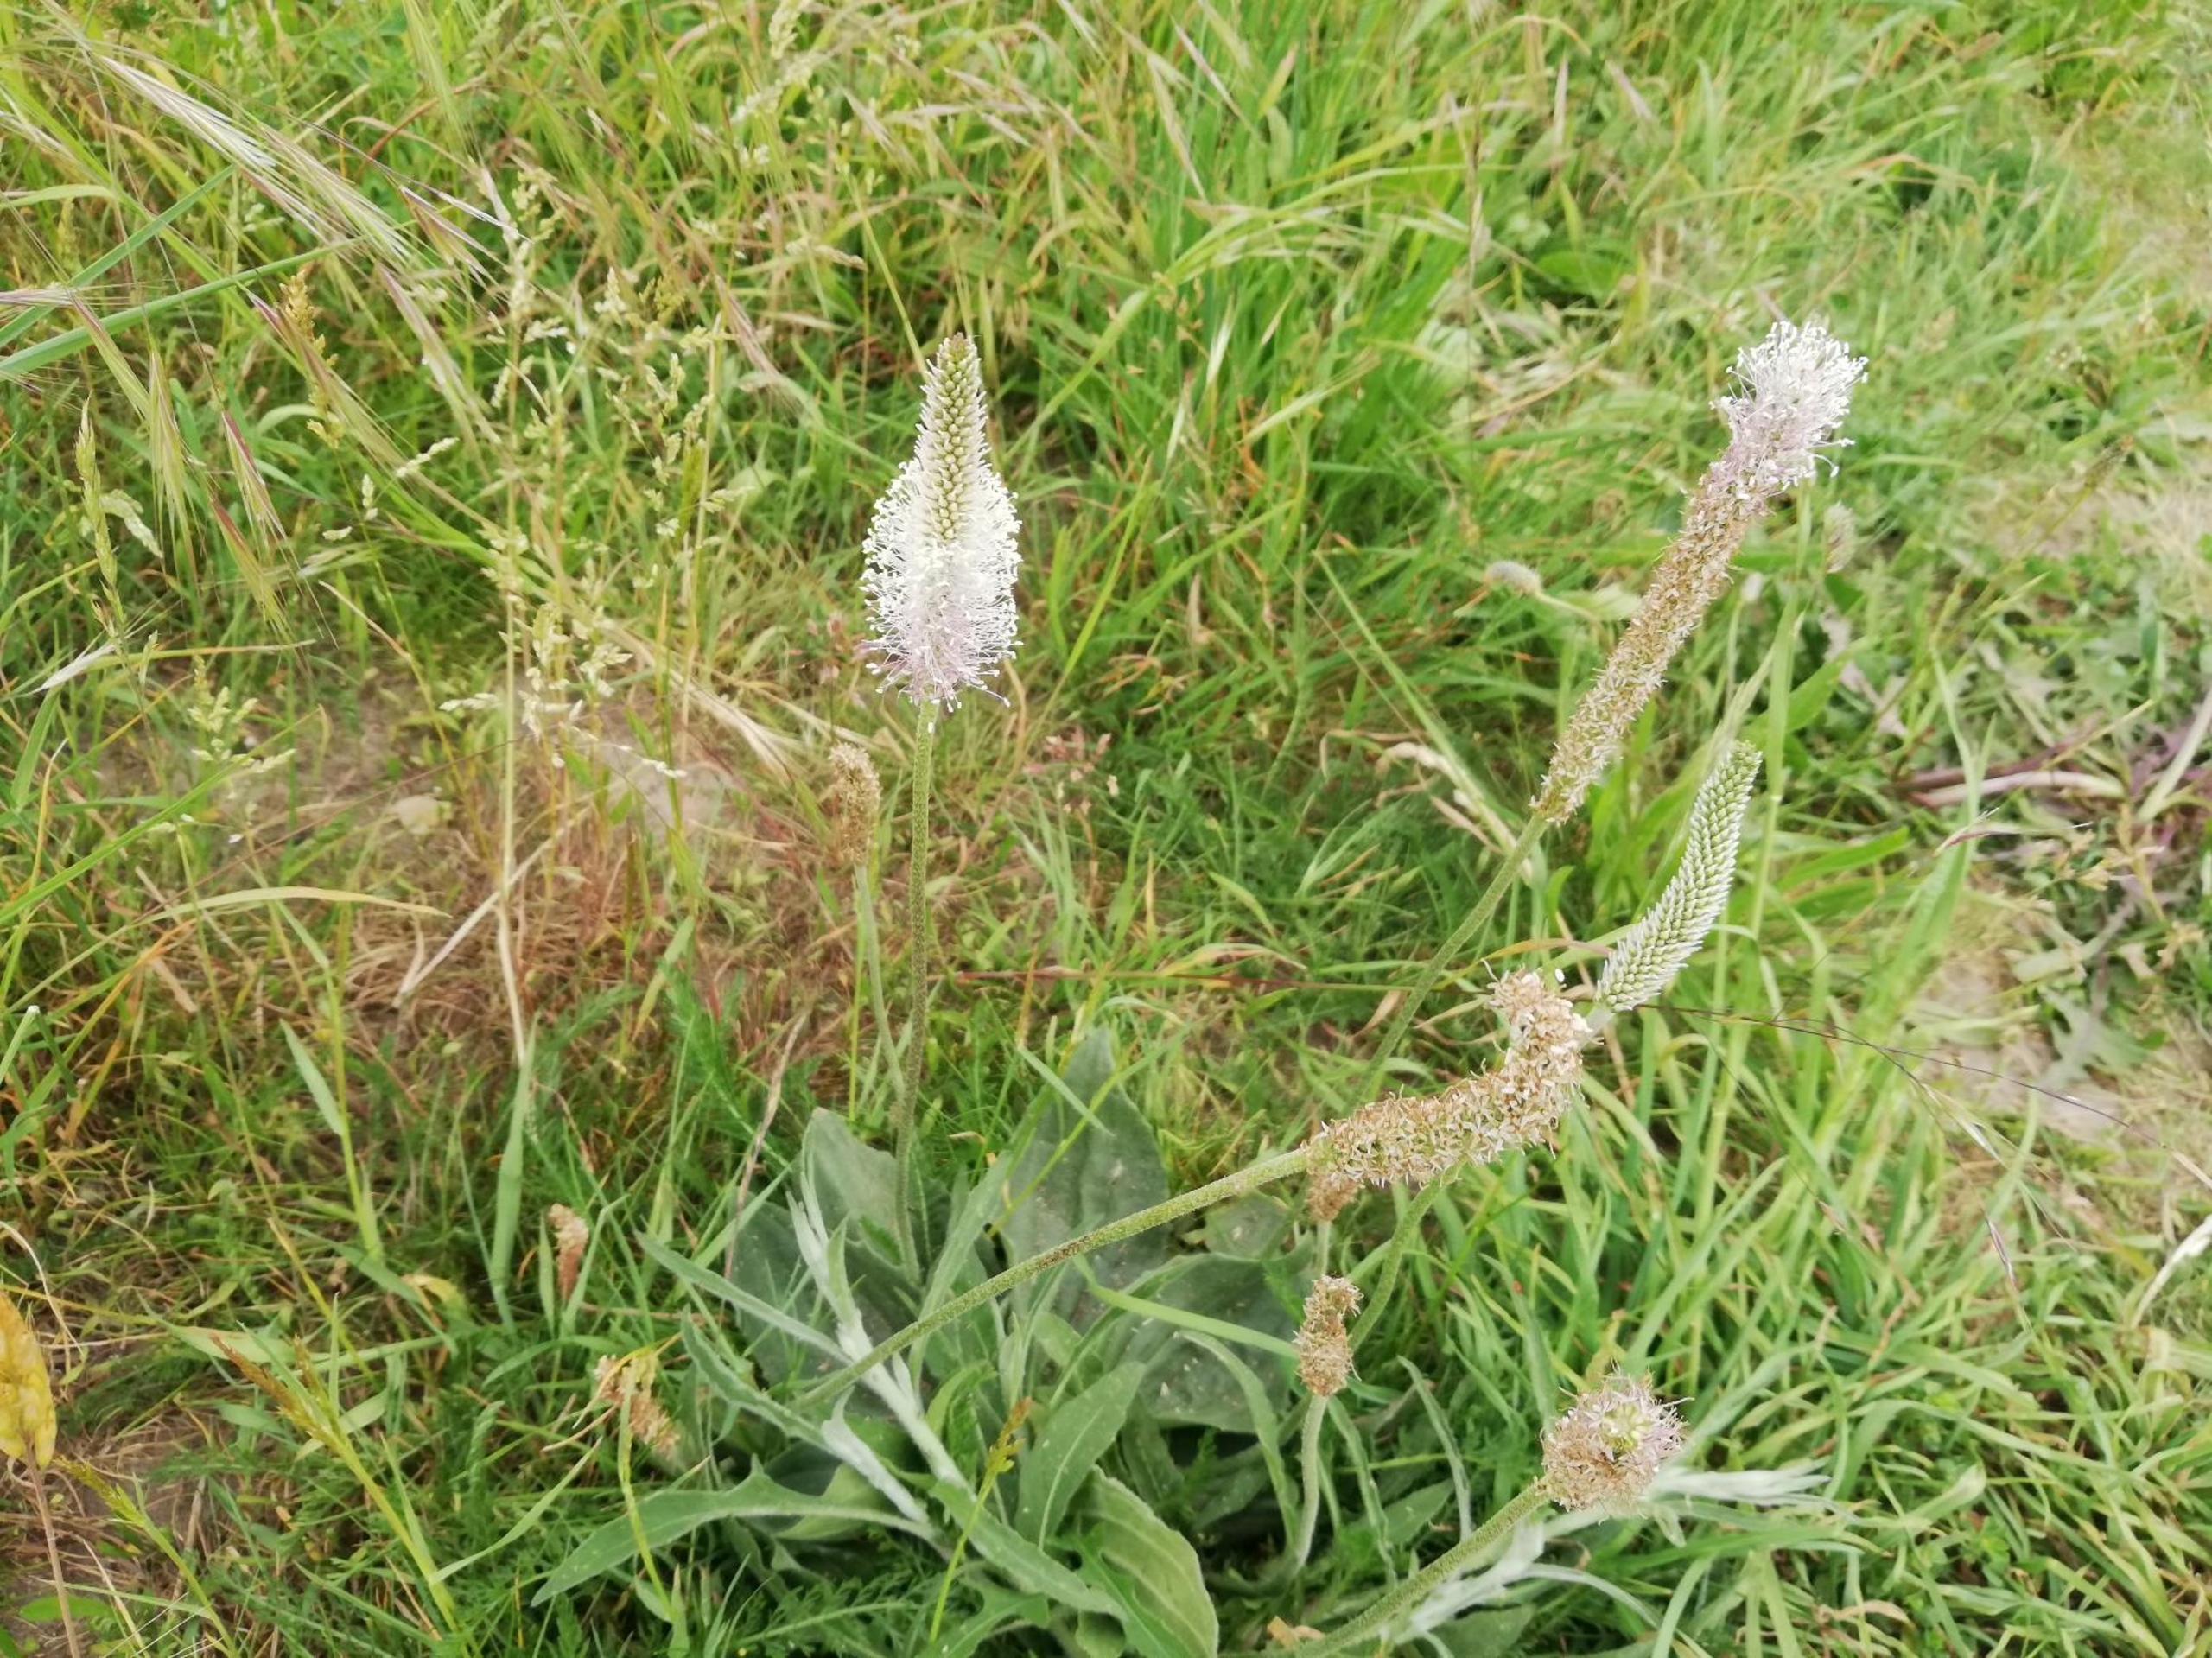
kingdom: Plantae
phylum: Tracheophyta
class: Magnoliopsida
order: Lamiales
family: Plantaginaceae
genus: Plantago
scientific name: Plantago media
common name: Dunet vejbred
